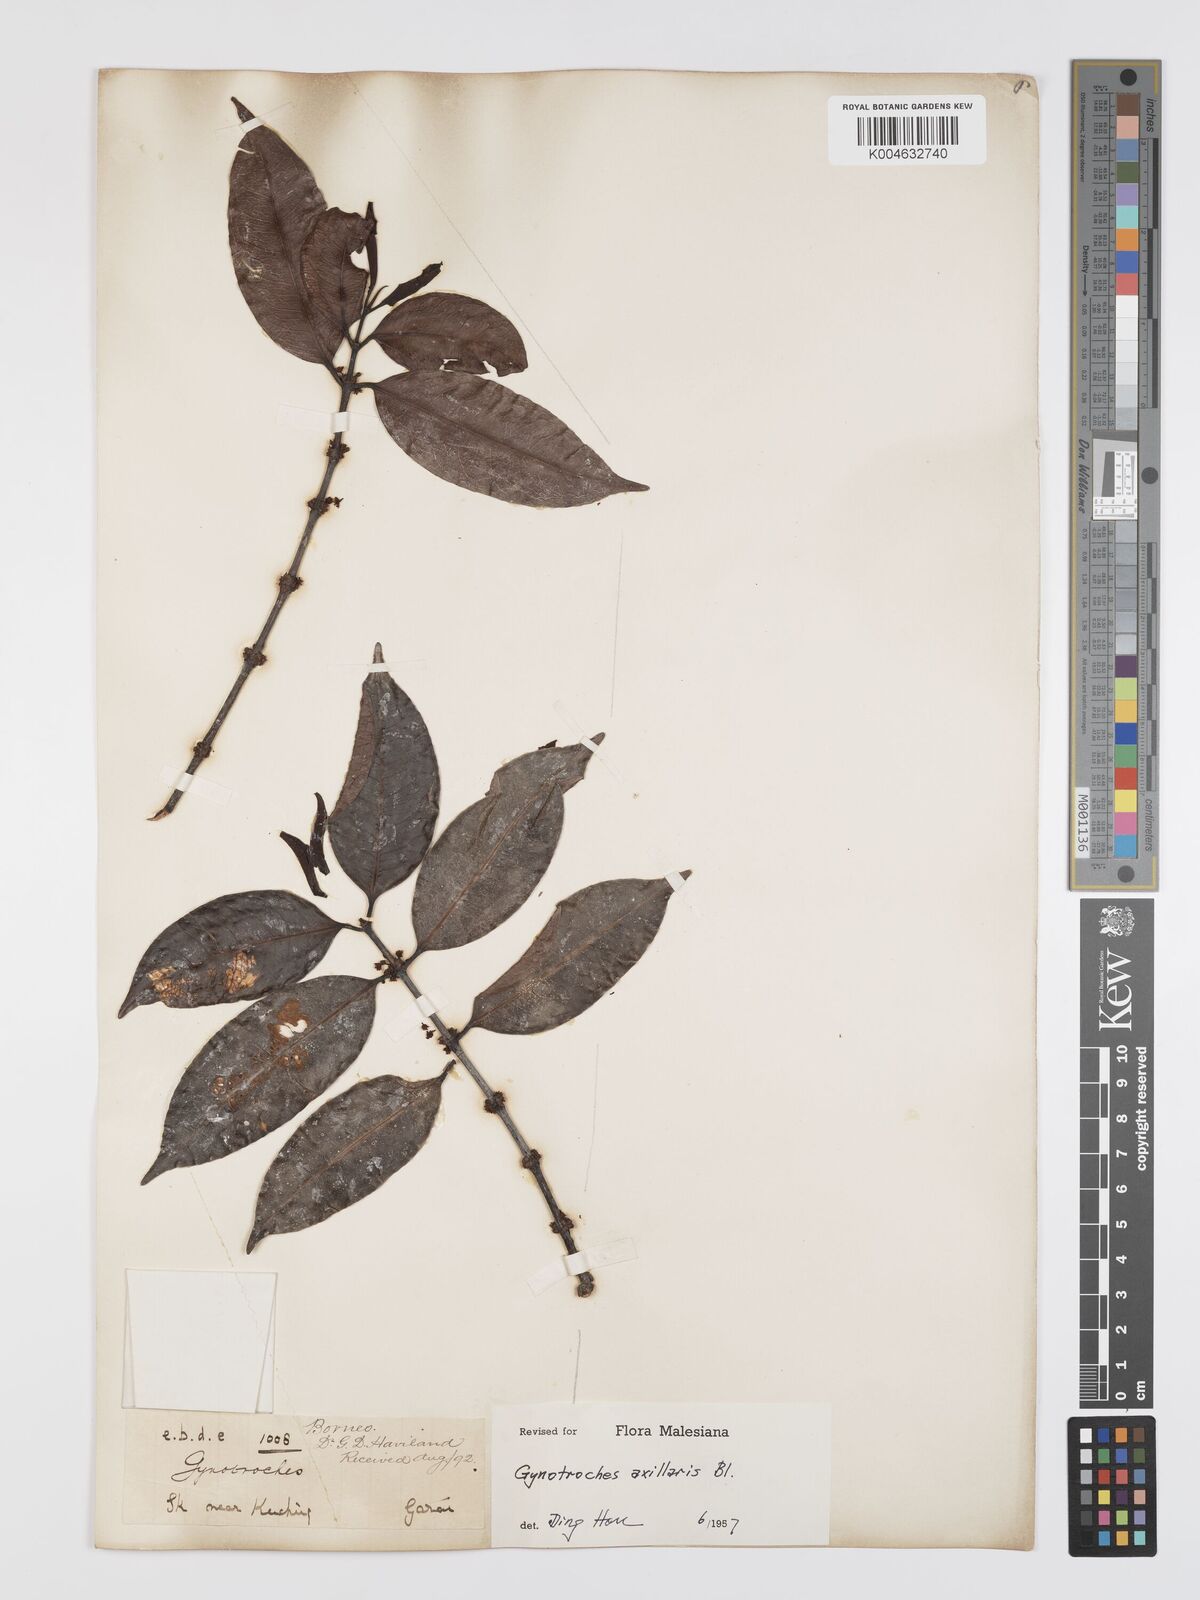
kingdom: Plantae
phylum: Tracheophyta
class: Magnoliopsida
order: Malpighiales
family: Rhizophoraceae
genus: Gynotroches
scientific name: Gynotroches axillaris
